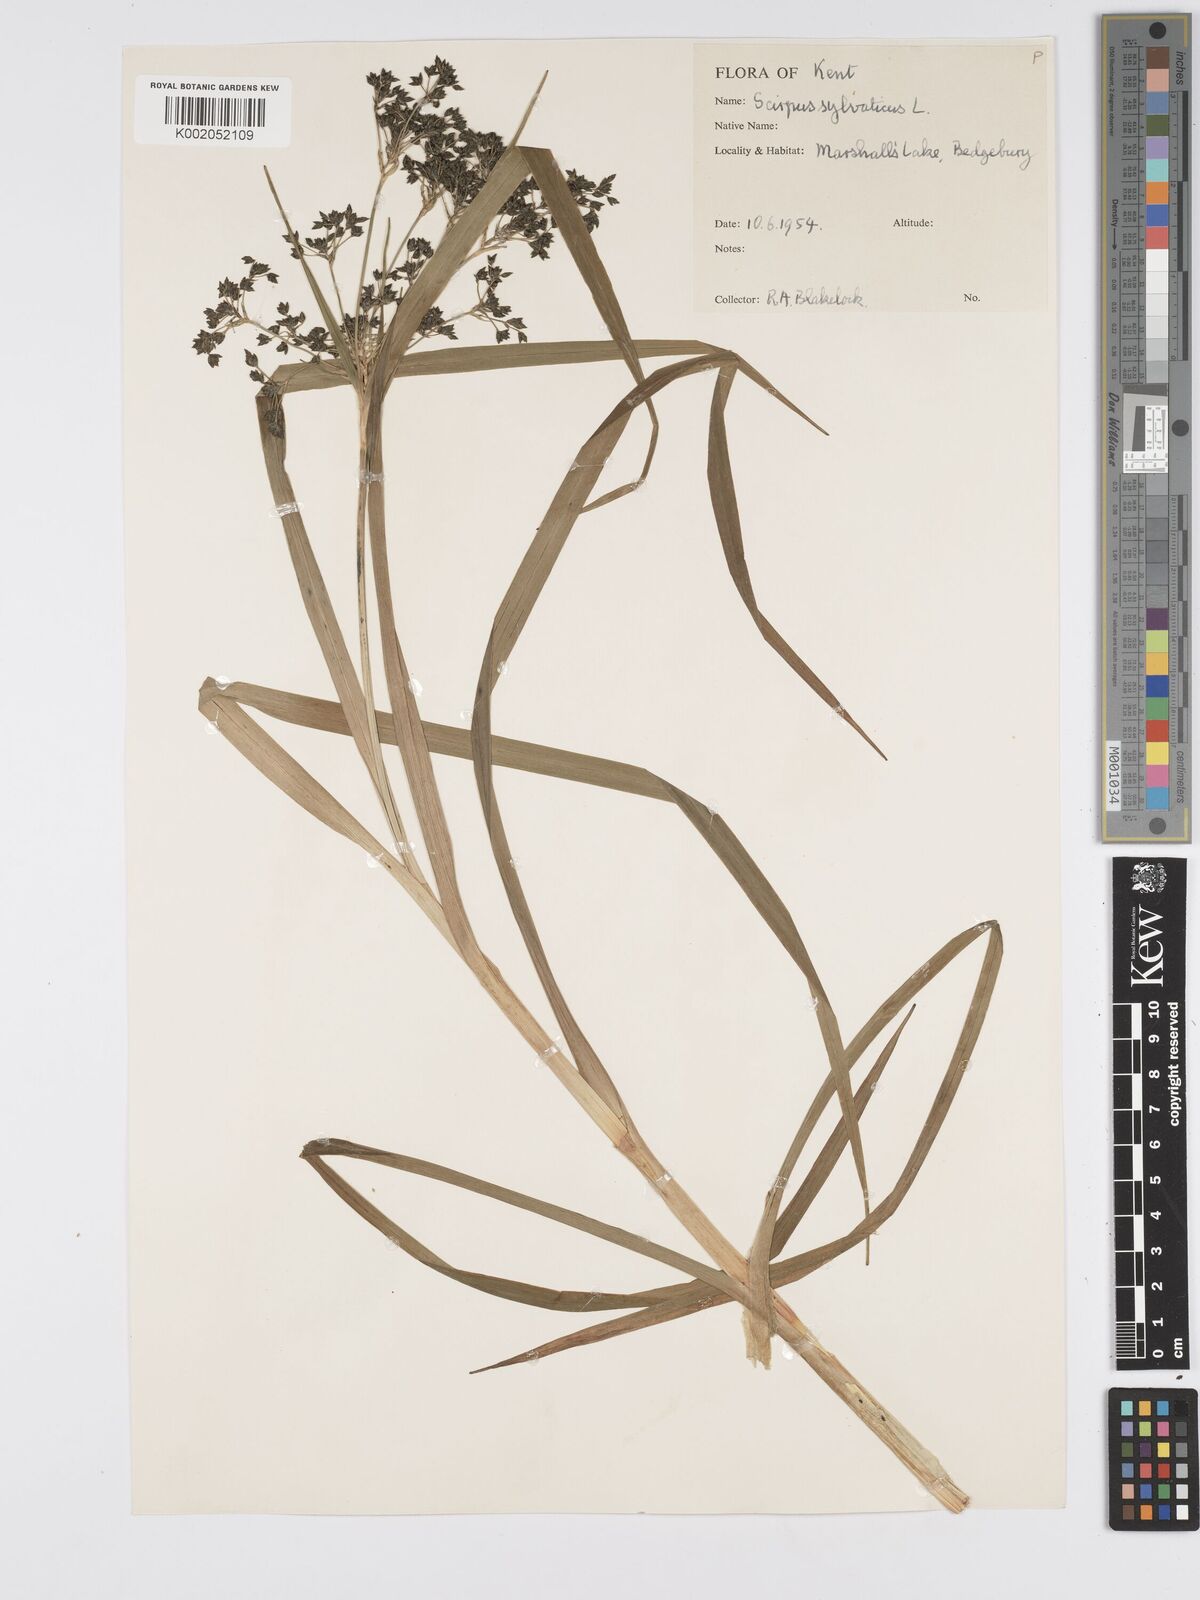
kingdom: Plantae
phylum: Tracheophyta
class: Liliopsida
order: Poales
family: Cyperaceae
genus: Scirpus
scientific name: Scirpus sylvaticus
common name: Wood club-rush
